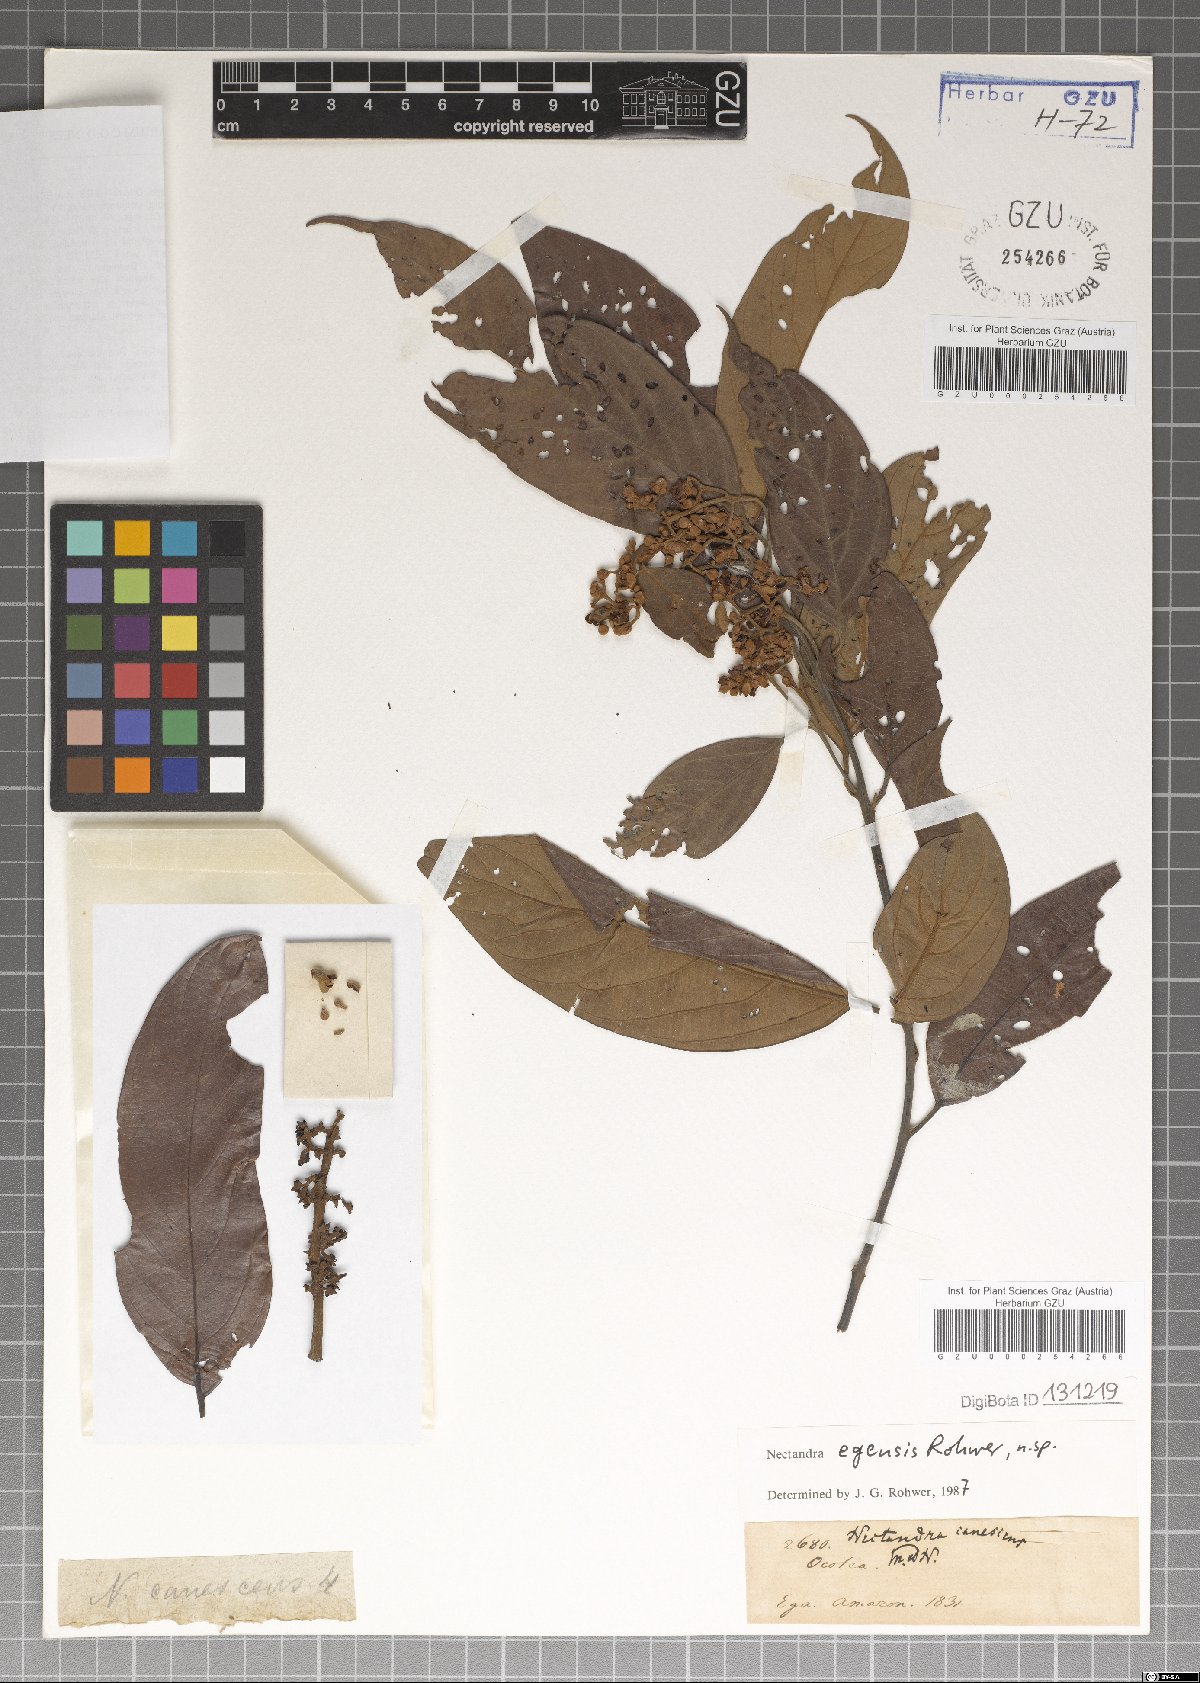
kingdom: Plantae
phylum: Tracheophyta
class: Magnoliopsida
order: Laurales
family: Lauraceae
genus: Nectandra
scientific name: Nectandra egensis
